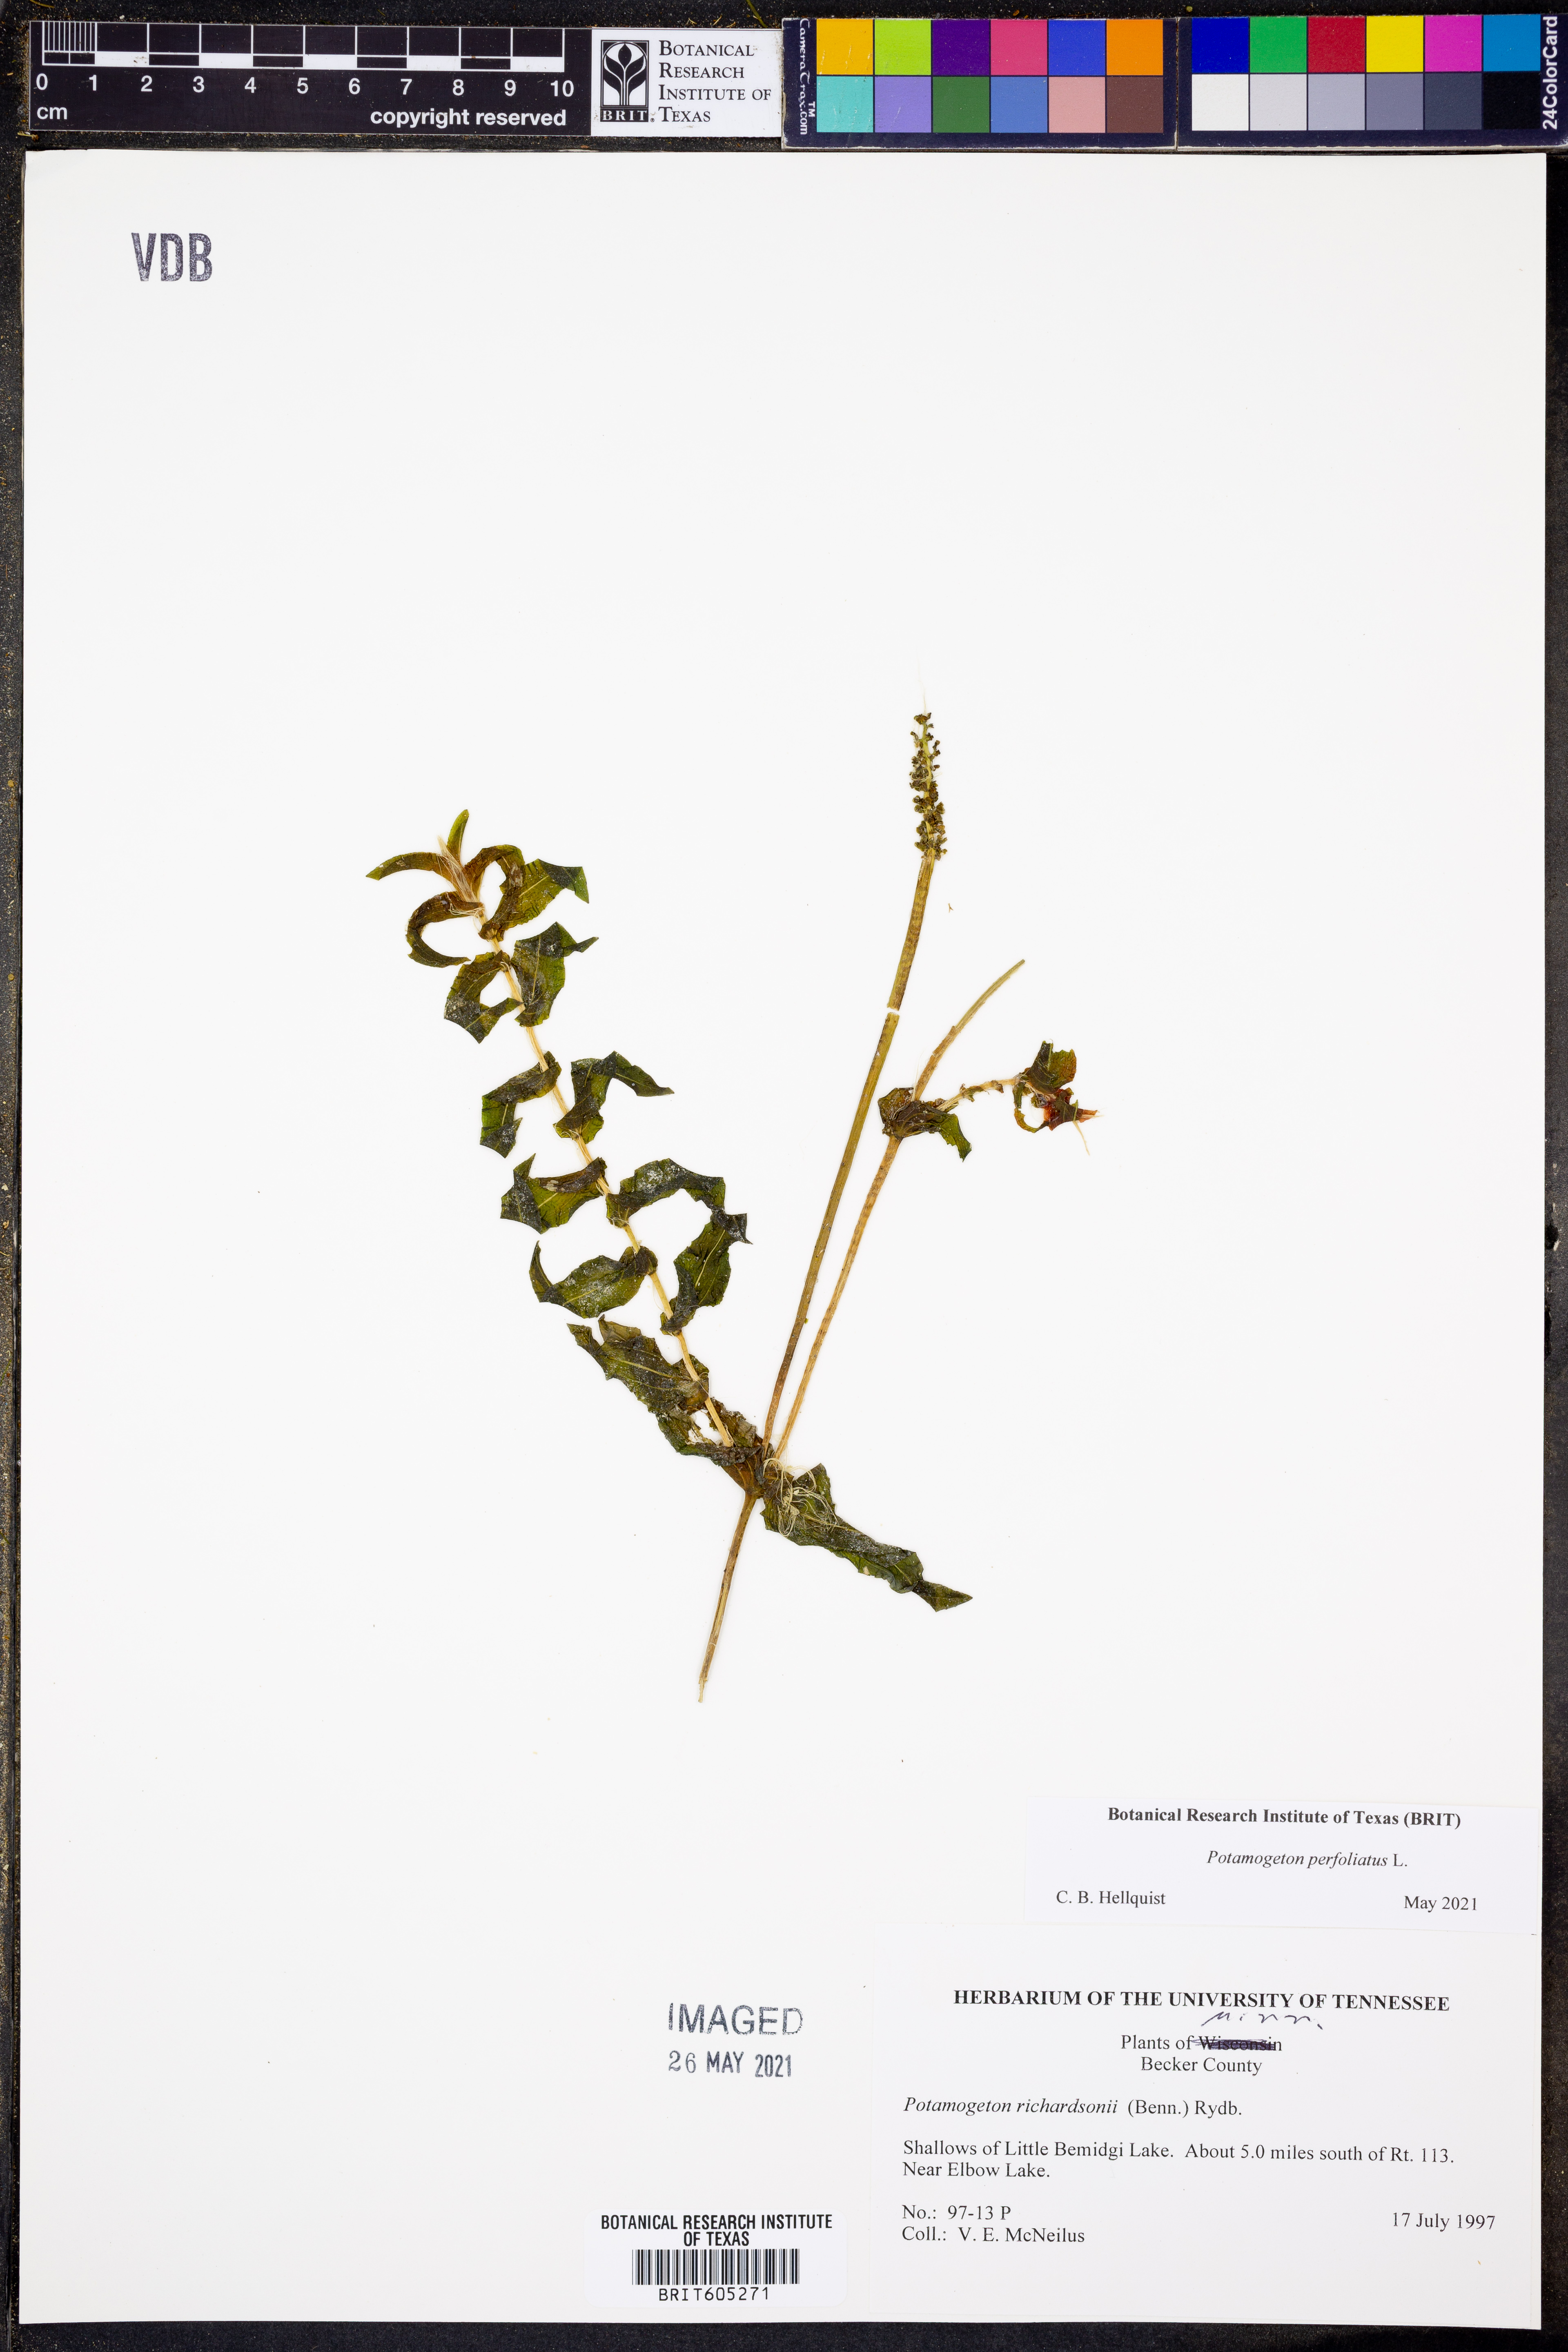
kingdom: Plantae
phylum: Tracheophyta
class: Liliopsida
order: Alismatales
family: Potamogetonaceae
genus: Potamogeton
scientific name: Potamogeton perfoliatus
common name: Perfoliate pondweed
